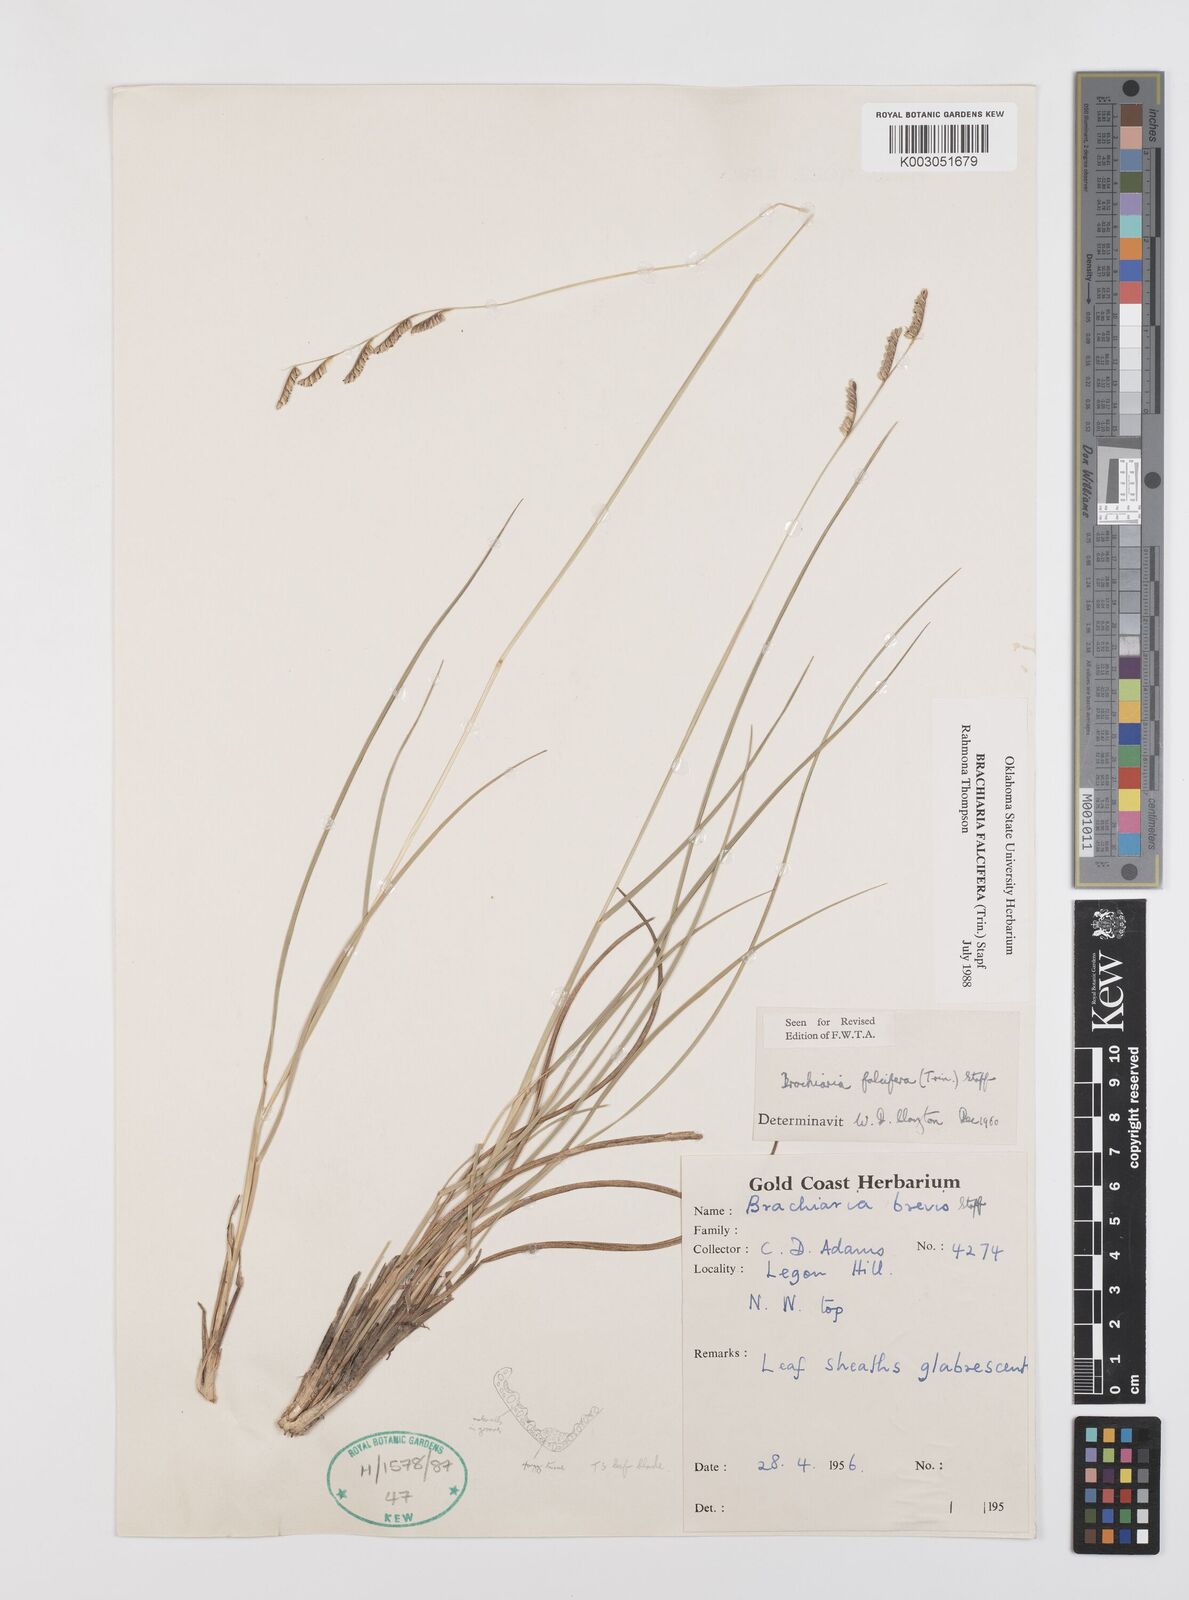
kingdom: Plantae
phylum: Tracheophyta
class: Liliopsida
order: Poales
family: Poaceae
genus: Urochloa
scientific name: Urochloa falcifera
